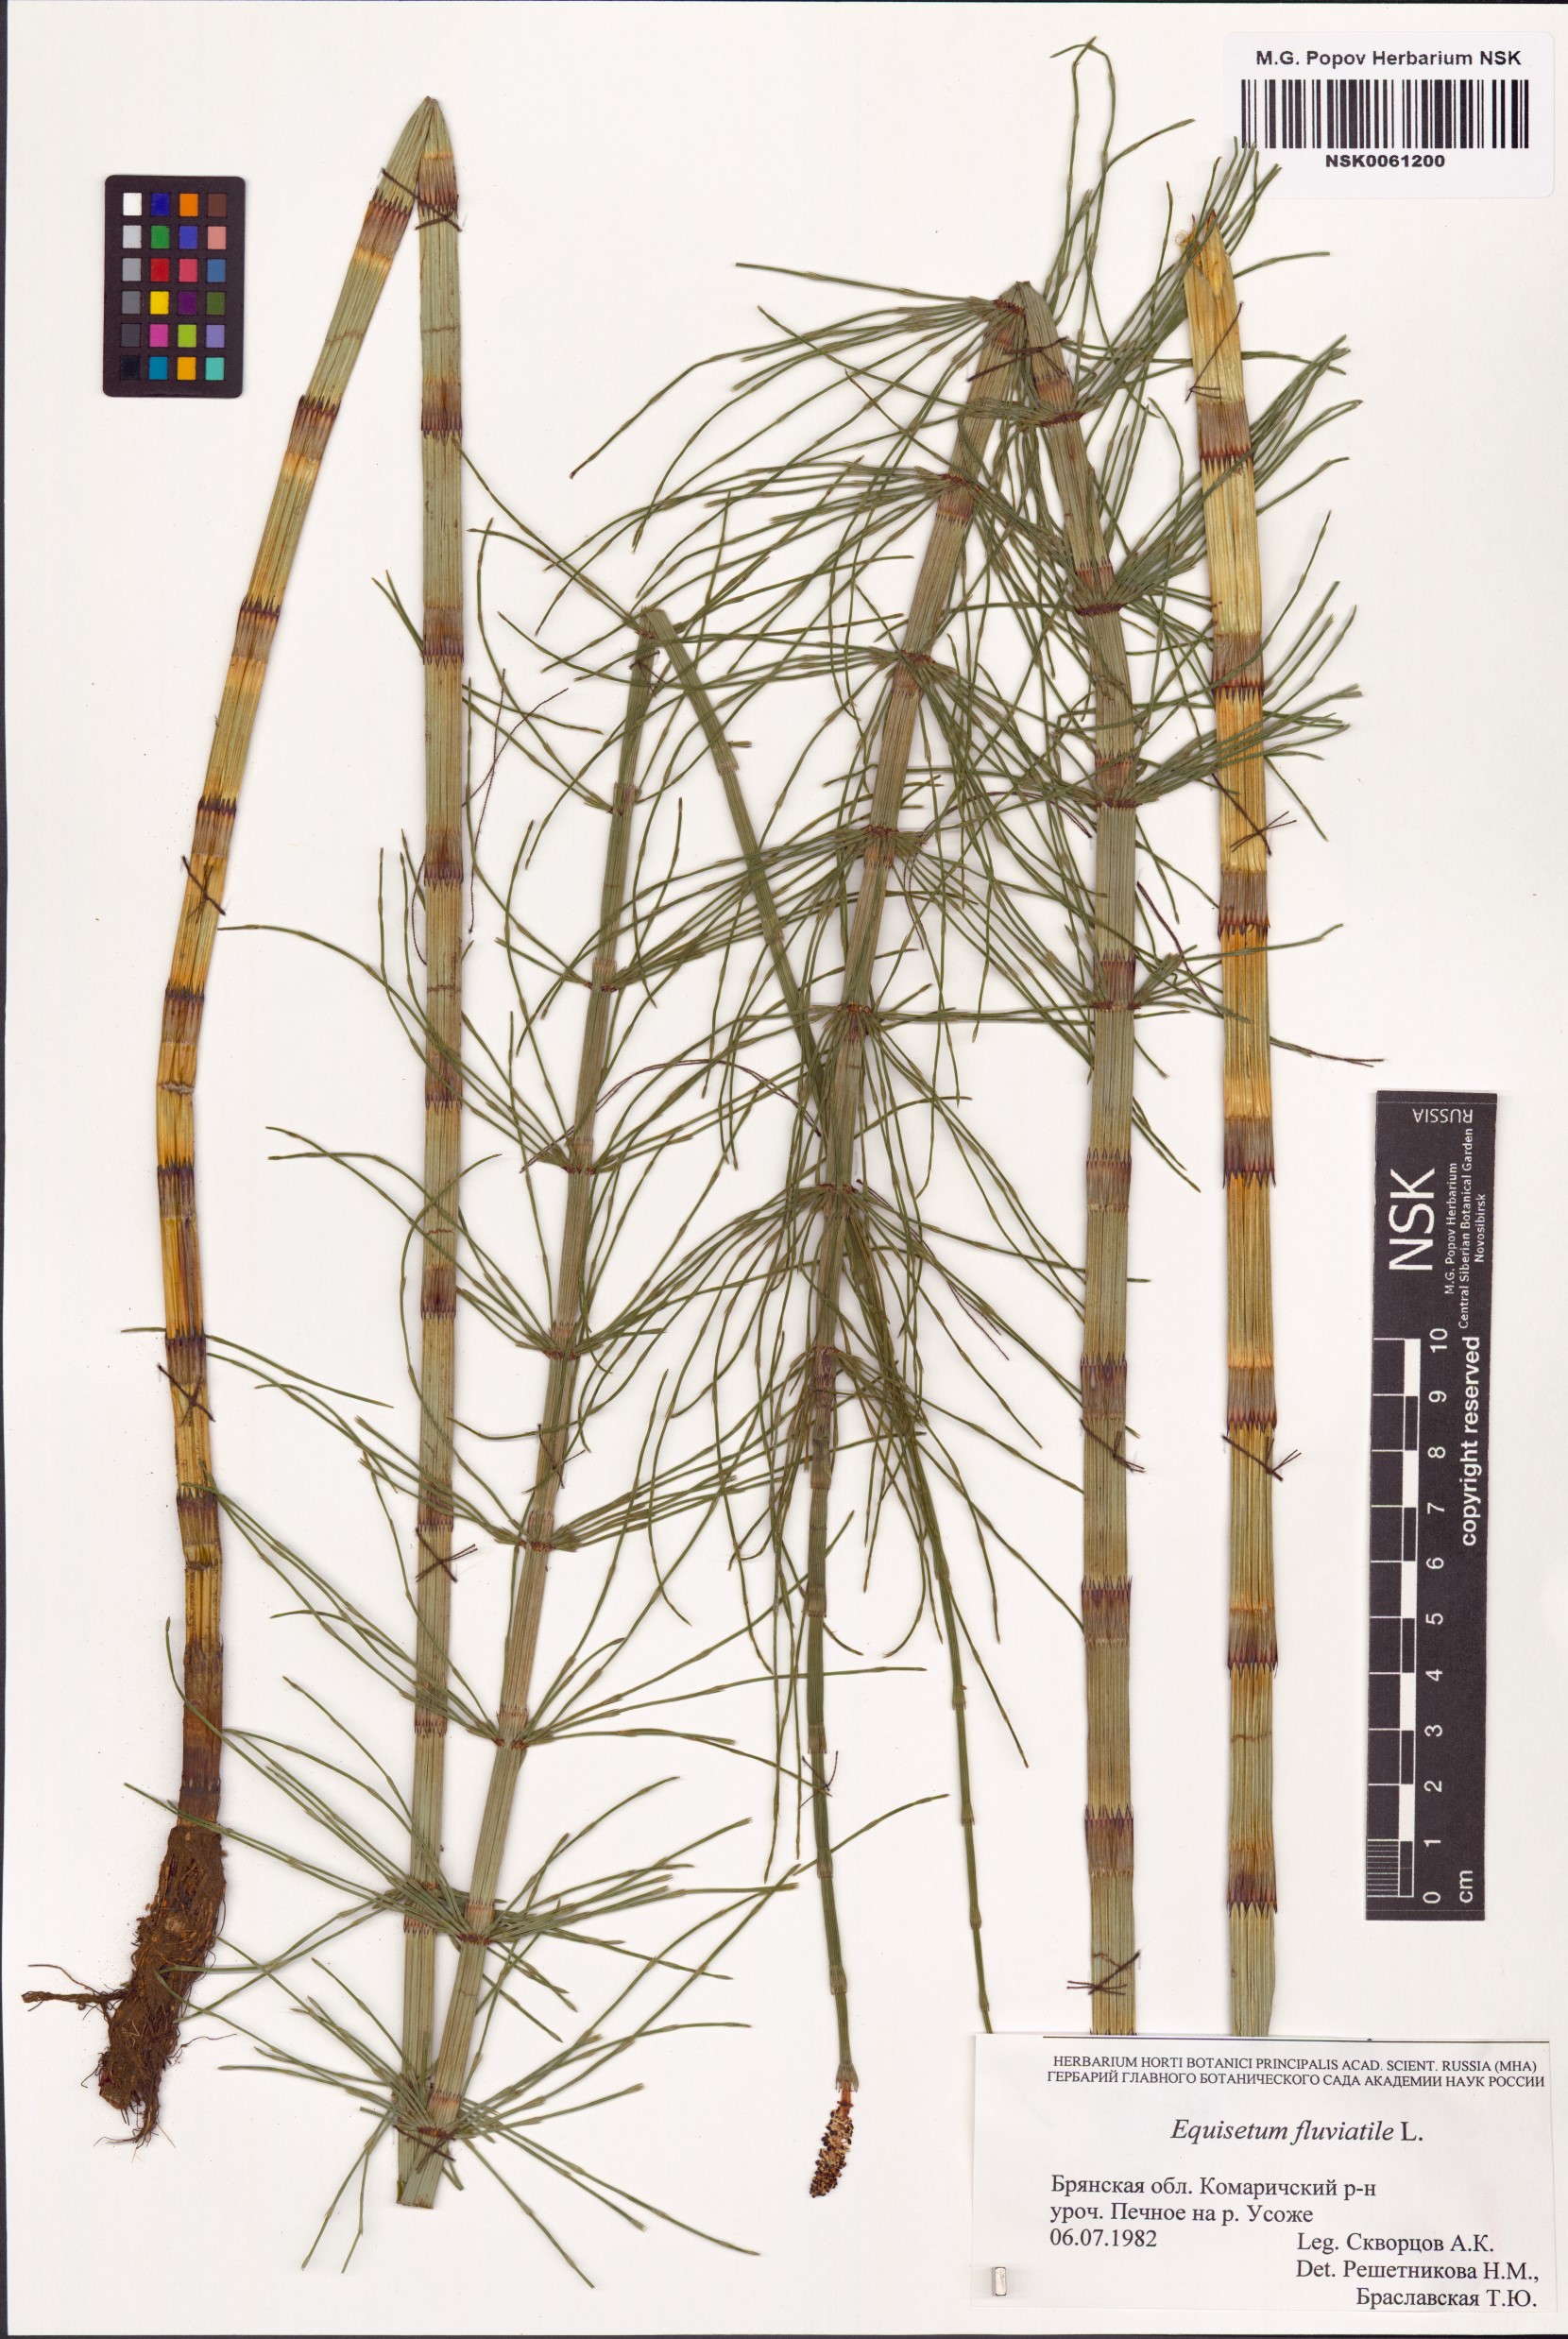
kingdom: Plantae
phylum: Tracheophyta
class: Polypodiopsida
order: Equisetales
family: Equisetaceae
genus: Equisetum
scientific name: Equisetum fluviatile
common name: Water horsetail
